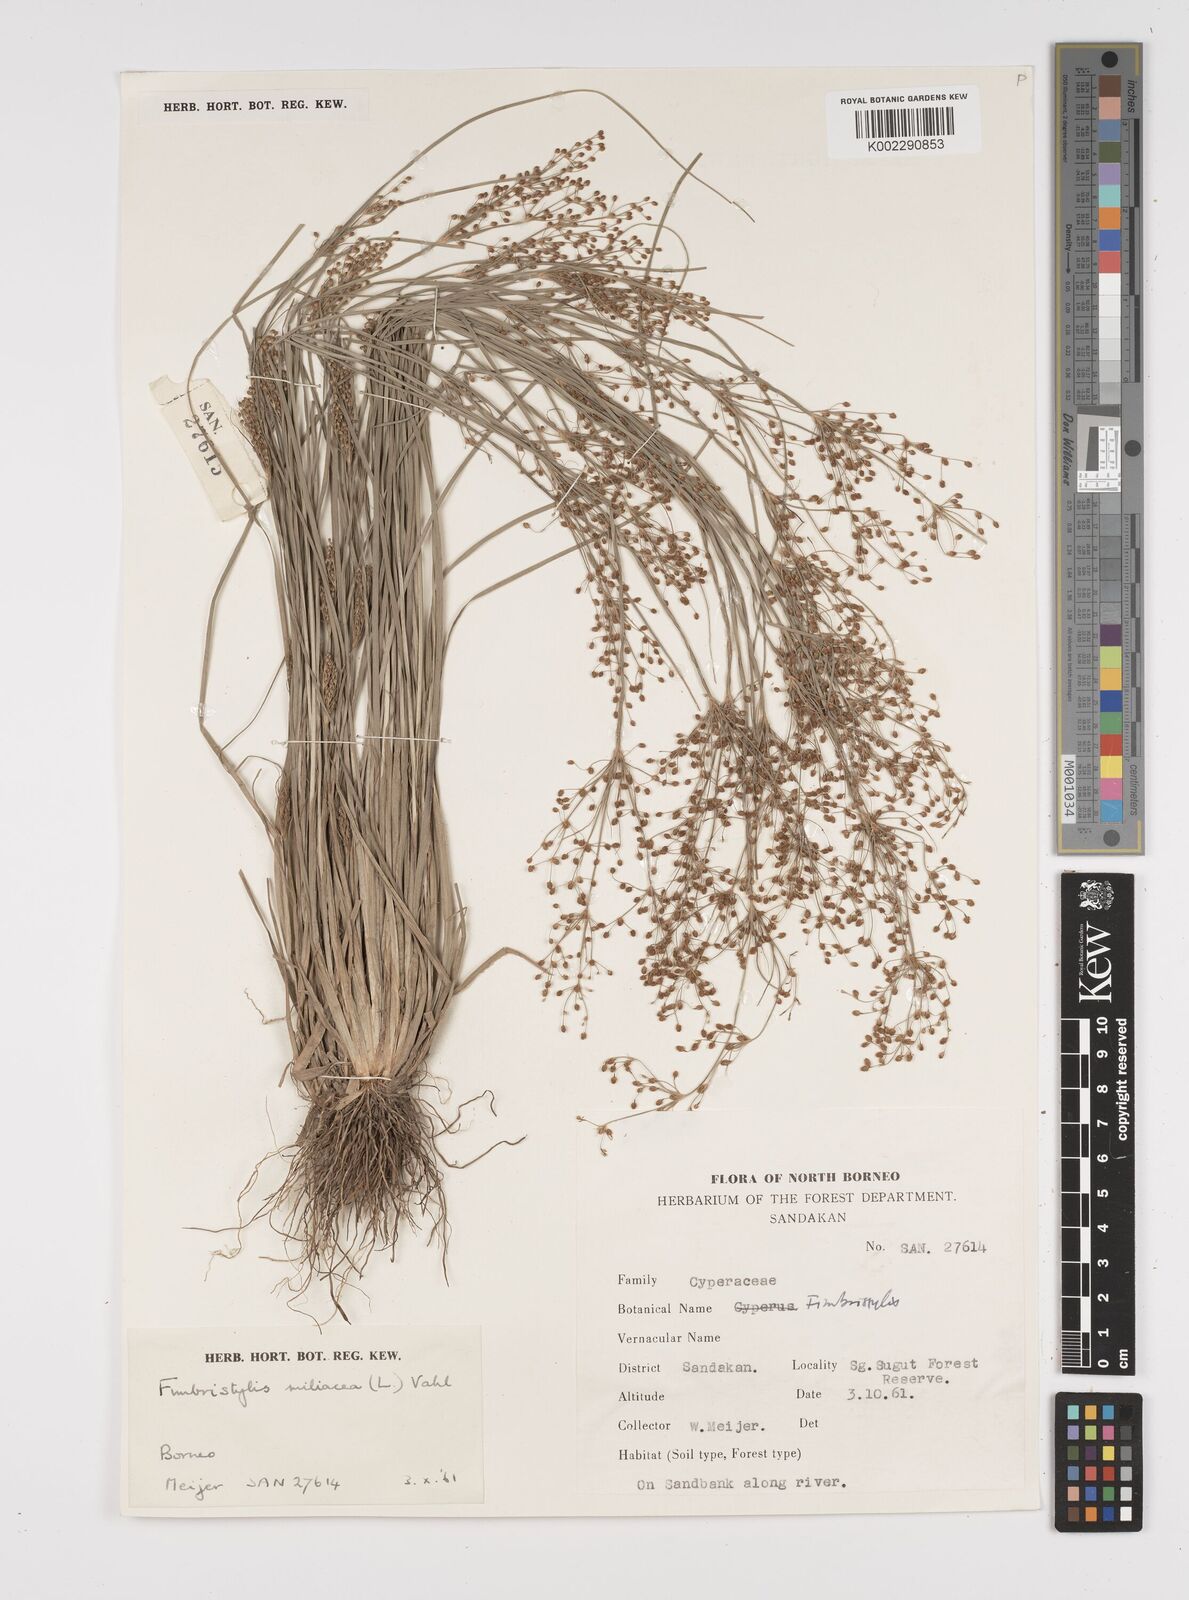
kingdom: Plantae
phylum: Tracheophyta
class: Liliopsida
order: Poales
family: Cyperaceae
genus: Fimbristylis
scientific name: Fimbristylis littoralis
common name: Fimbry
